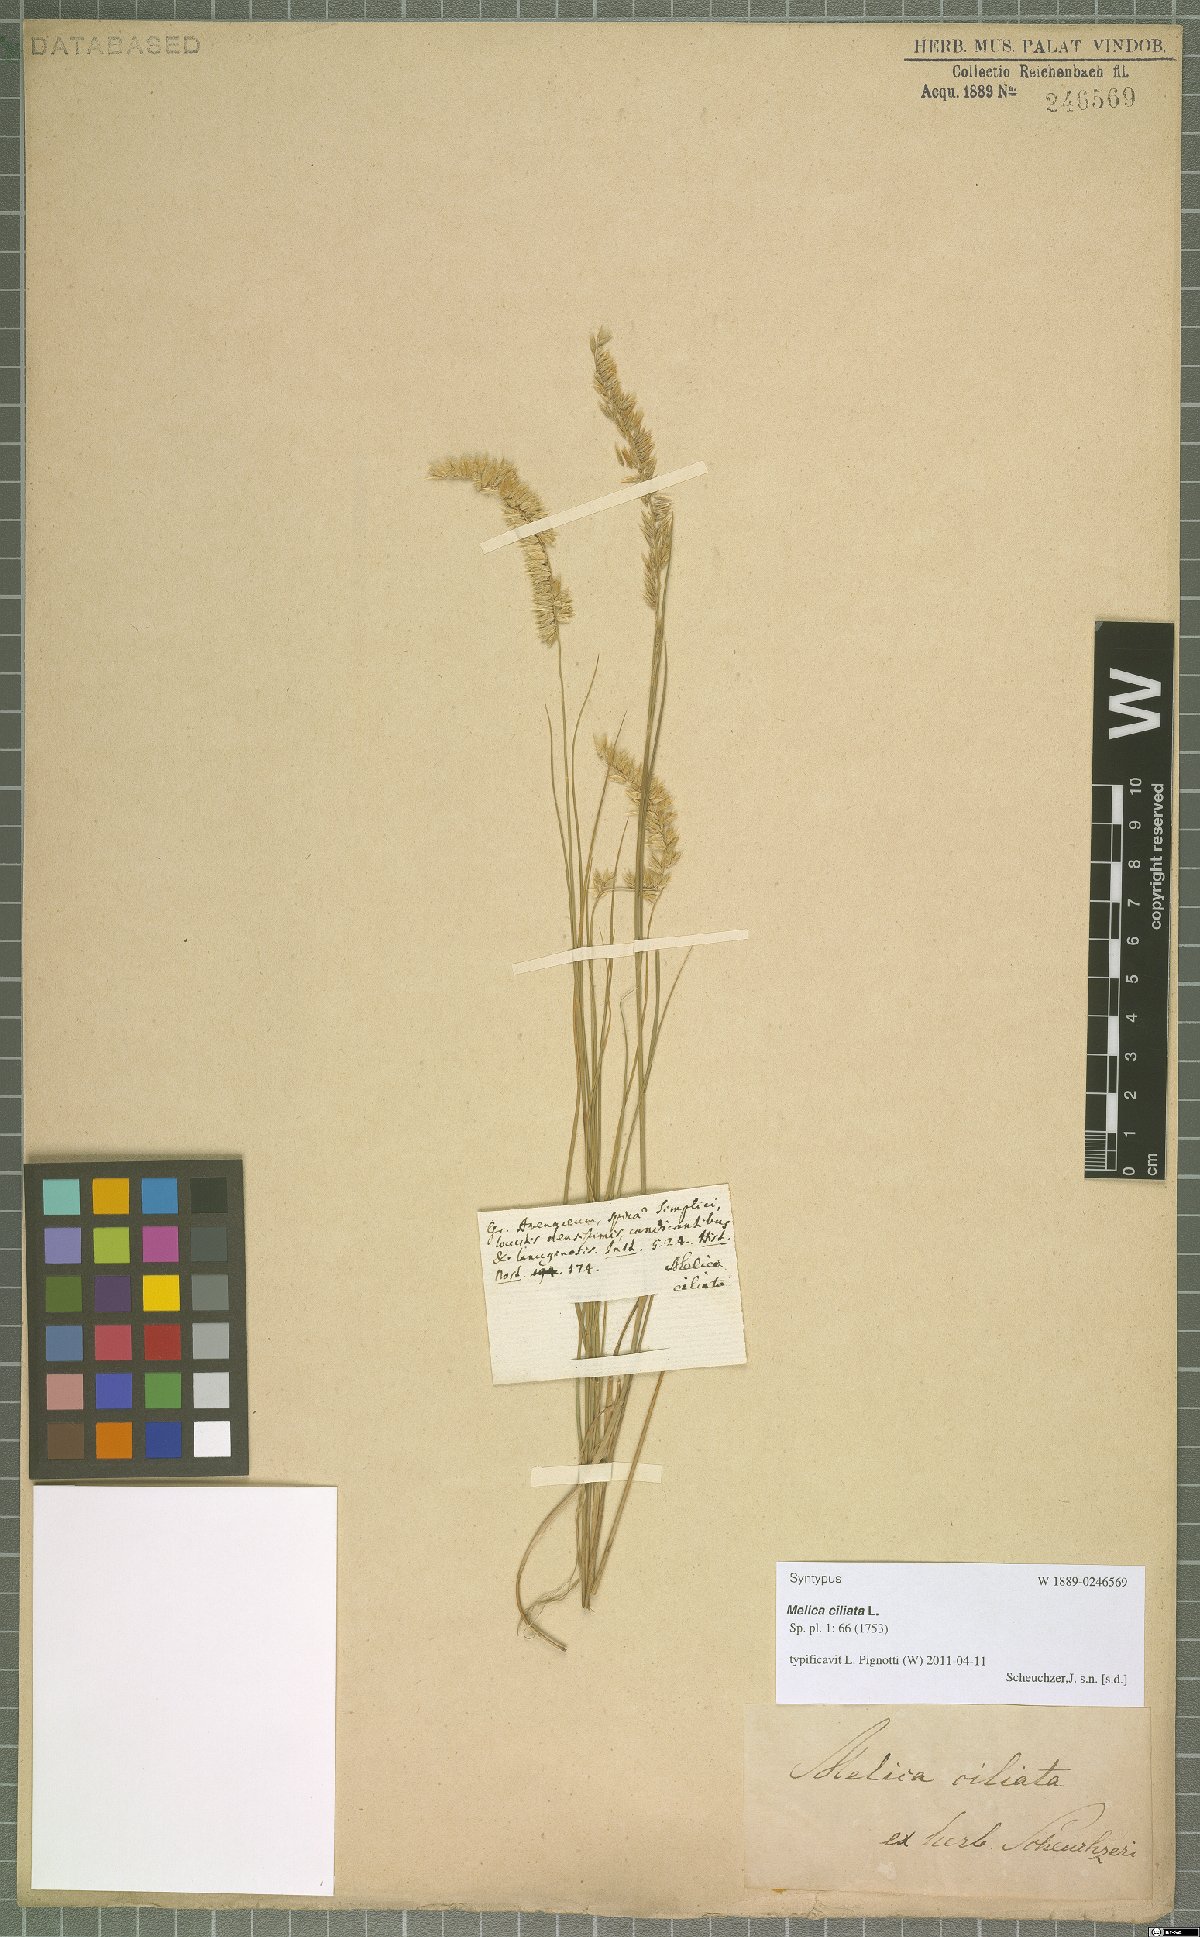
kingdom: Plantae
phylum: Tracheophyta
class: Liliopsida
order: Poales
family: Poaceae
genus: Melica
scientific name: Melica ciliata
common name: Hairy melicgrass
